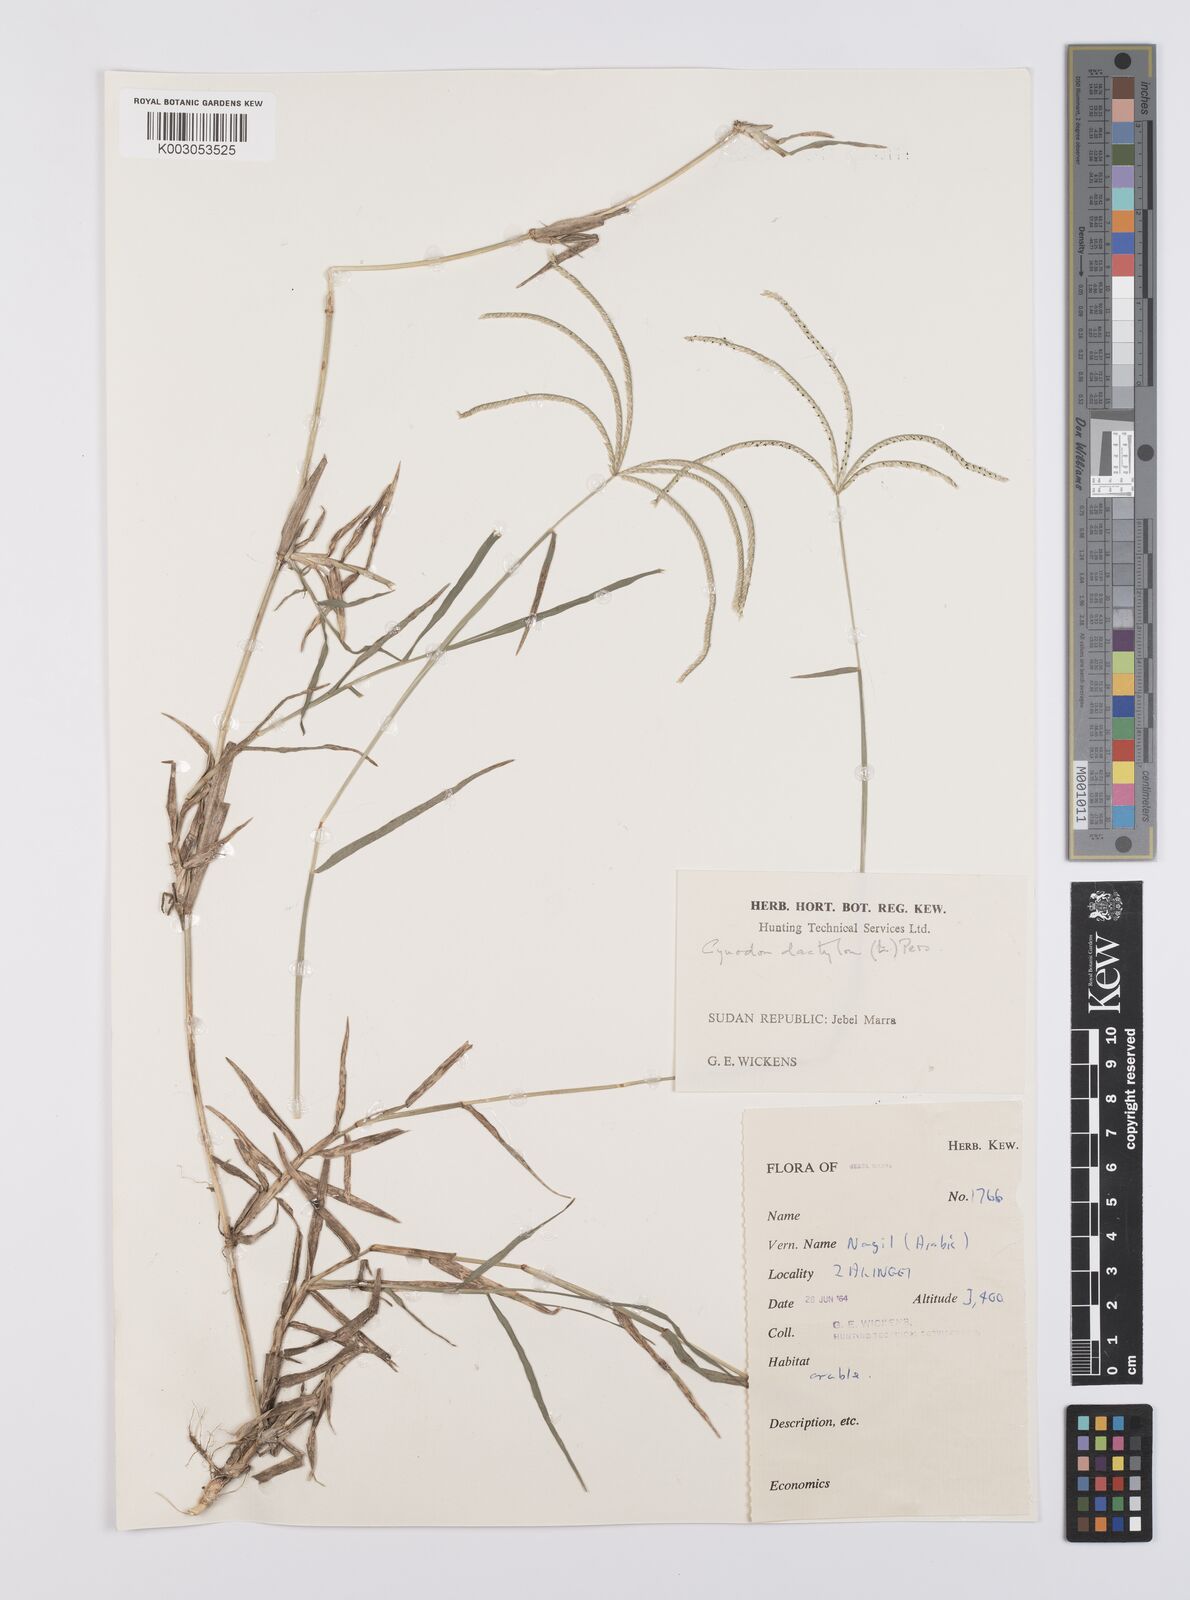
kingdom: Plantae
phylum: Tracheophyta
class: Liliopsida
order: Poales
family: Poaceae
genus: Cynodon
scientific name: Cynodon dactylon
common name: Bermuda grass
